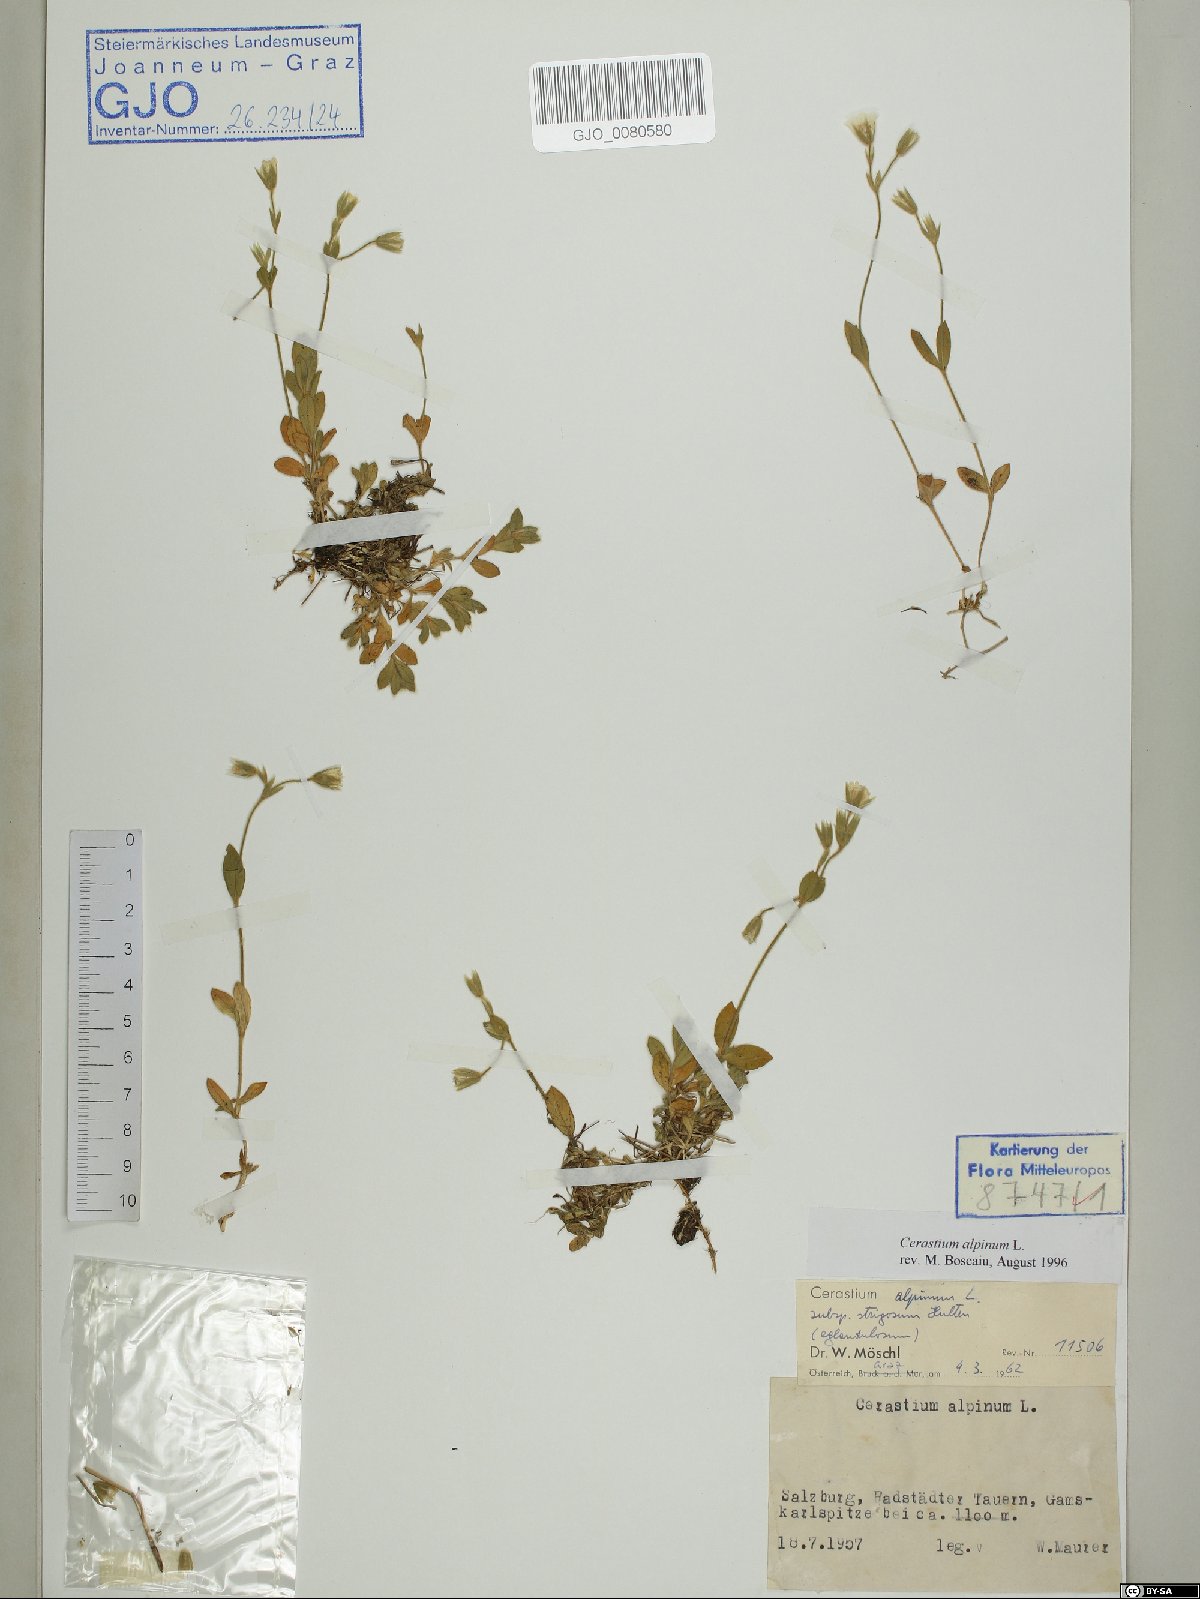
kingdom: Plantae
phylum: Tracheophyta
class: Magnoliopsida
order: Caryophyllales
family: Caryophyllaceae
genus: Cerastium
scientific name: Cerastium alpinum
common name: Alpine mouse-ear
